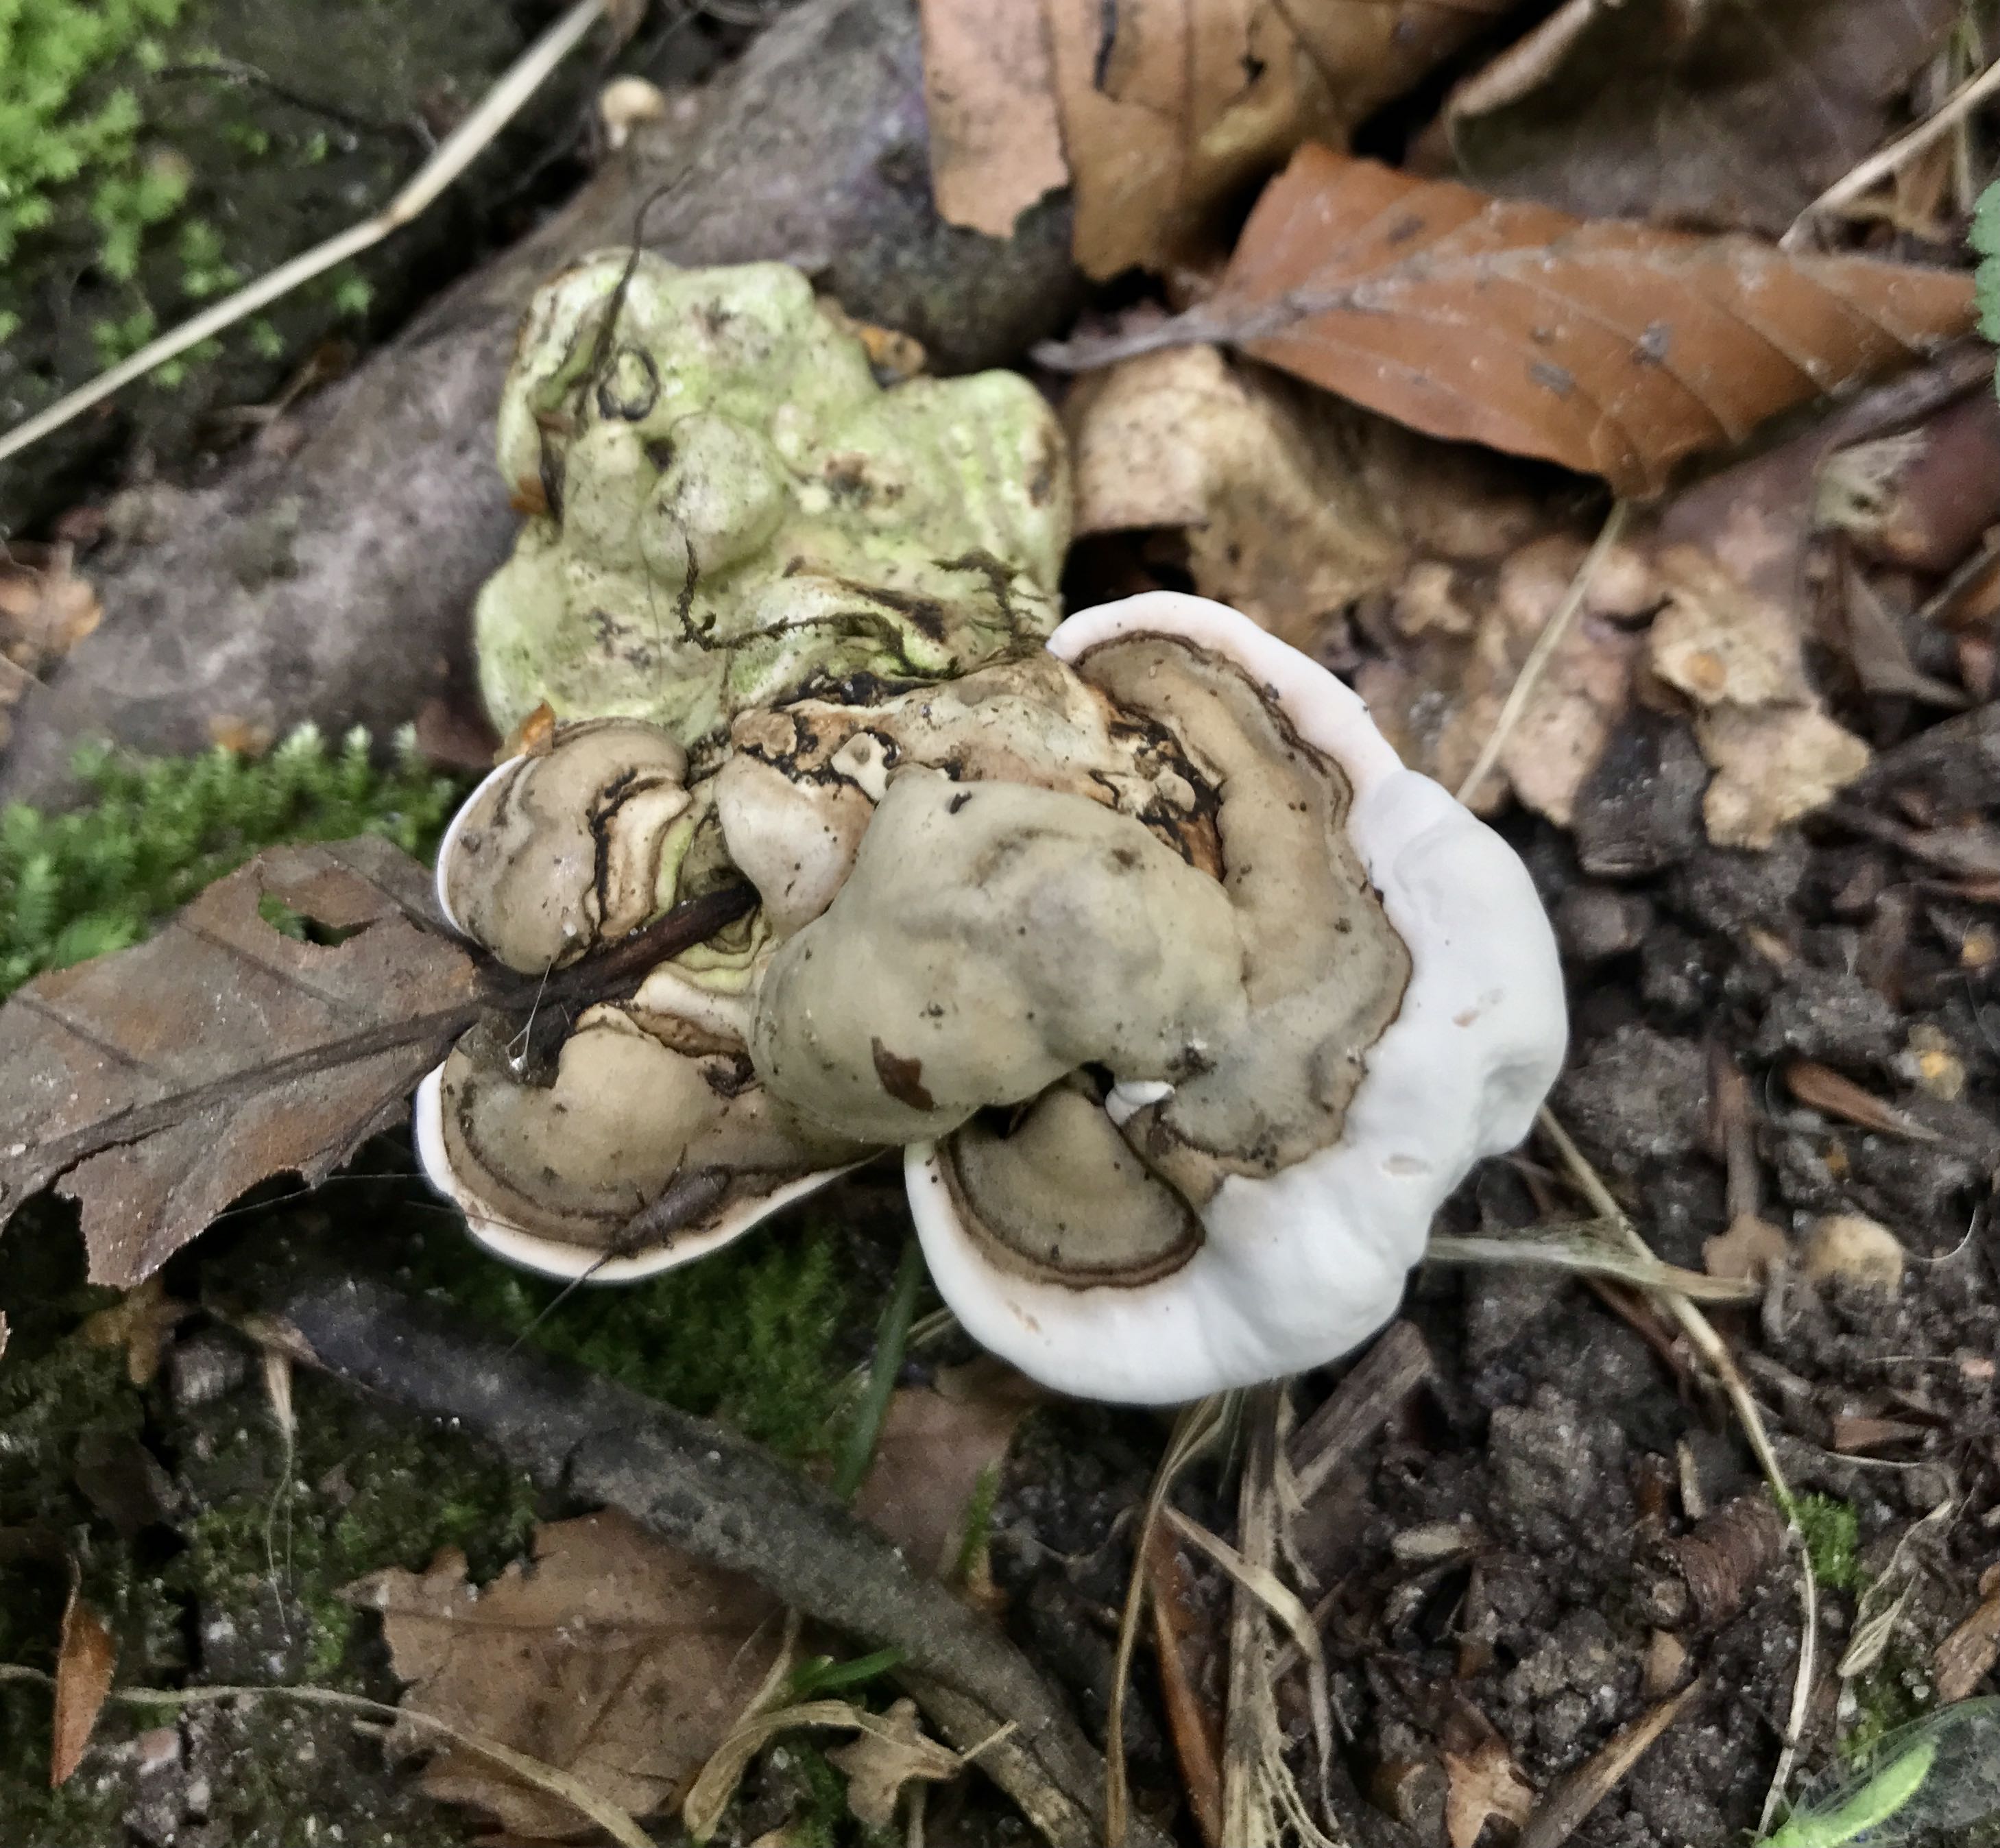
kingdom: Fungi
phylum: Basidiomycota
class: Agaricomycetes
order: Polyporales
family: Polyporaceae
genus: Ganoderma
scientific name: Ganoderma applanatum
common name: flad lakporesvamp
